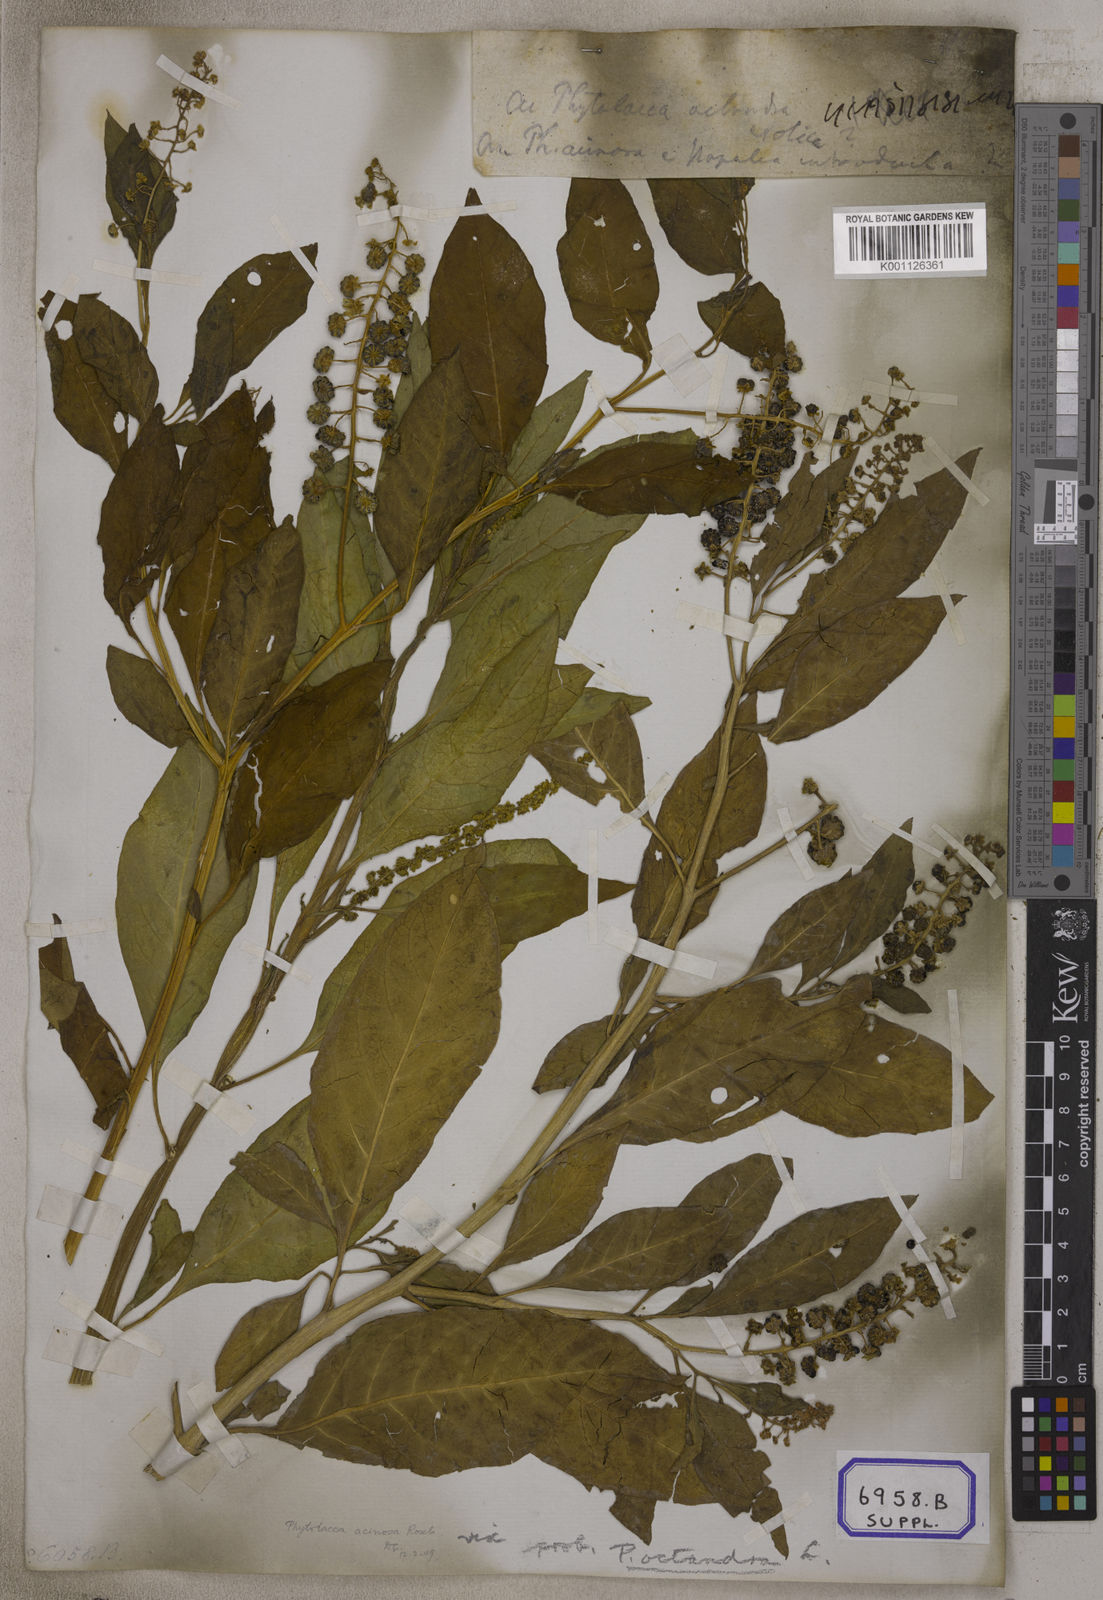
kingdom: Plantae
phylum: Tracheophyta
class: Magnoliopsida
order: Caryophyllales
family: Phytolaccaceae
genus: Phytolacca
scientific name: Phytolacca acinosa
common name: Indian pokeweed
